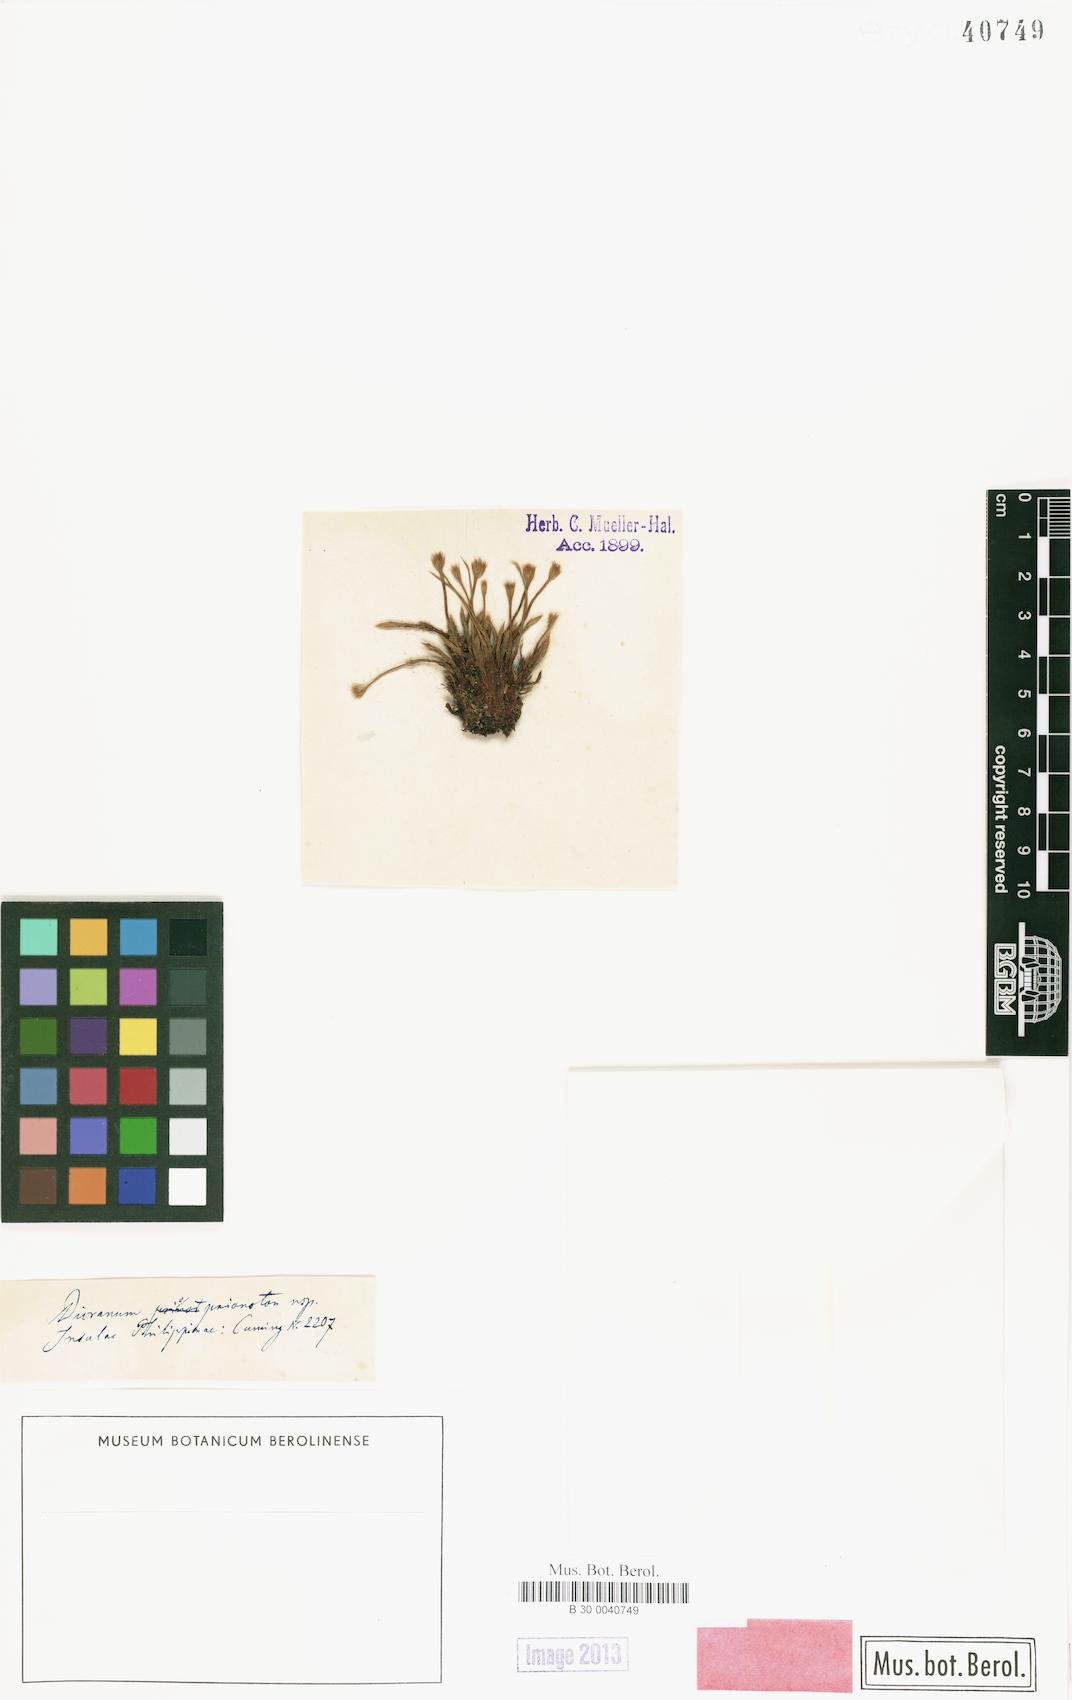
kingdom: Plantae
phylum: Bryophyta
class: Bryopsida
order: Dicranales
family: Dicranaceae
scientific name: Dicranaceae
